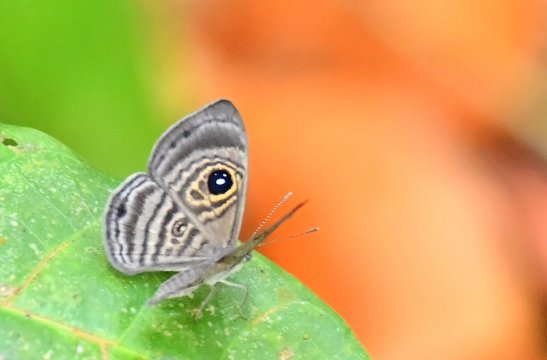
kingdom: Animalia
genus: Mesosemia
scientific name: Mesosemia hesperina
